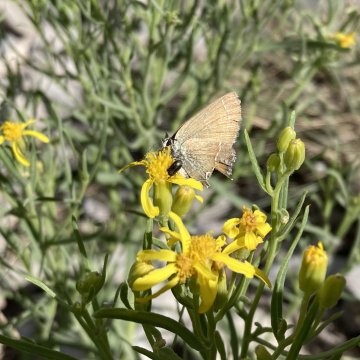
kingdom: Animalia
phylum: Arthropoda
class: Insecta
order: Lepidoptera
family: Lycaenidae
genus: Mitoura
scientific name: Mitoura gryneus
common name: Juniper Hairstreak
